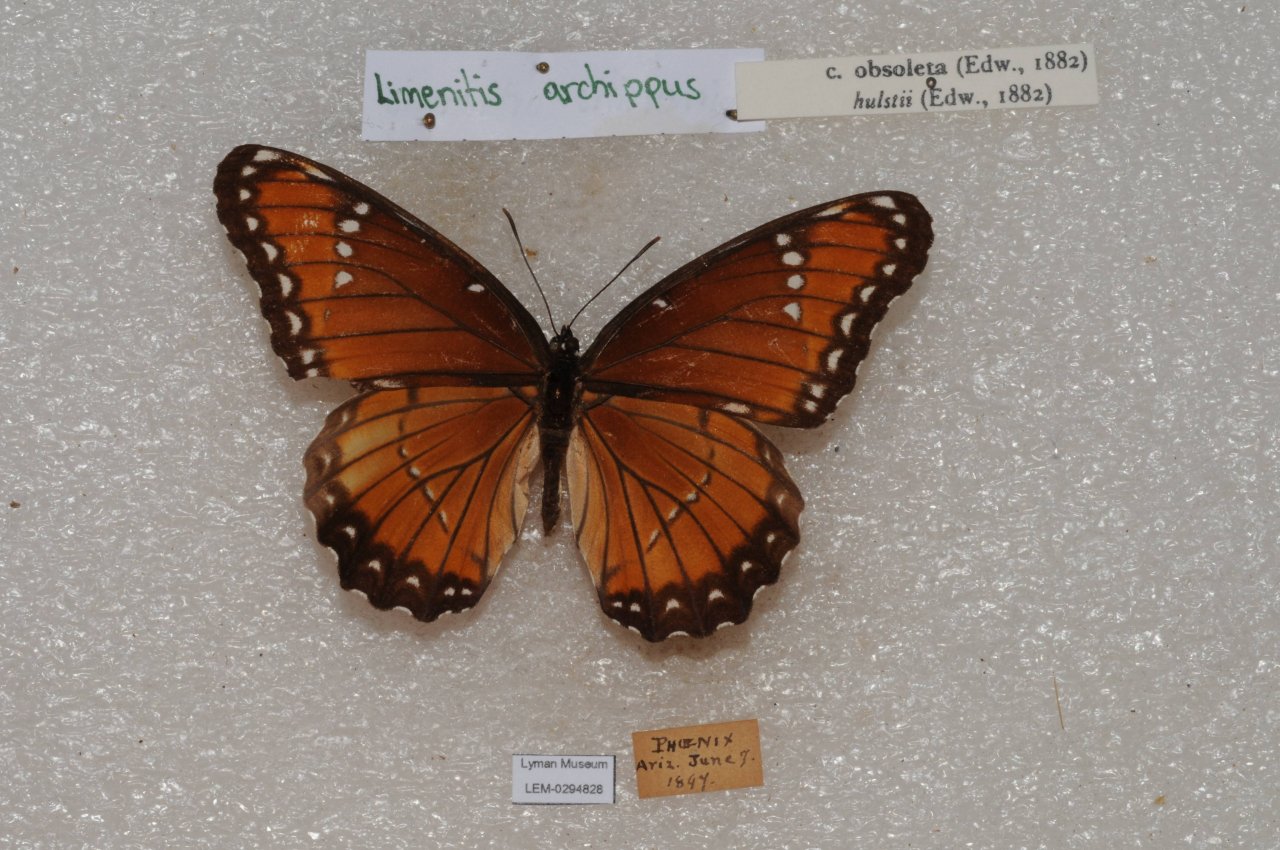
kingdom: Animalia
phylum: Arthropoda
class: Insecta
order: Lepidoptera
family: Nymphalidae
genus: Limenitis
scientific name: Limenitis archippus
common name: Viceroy
